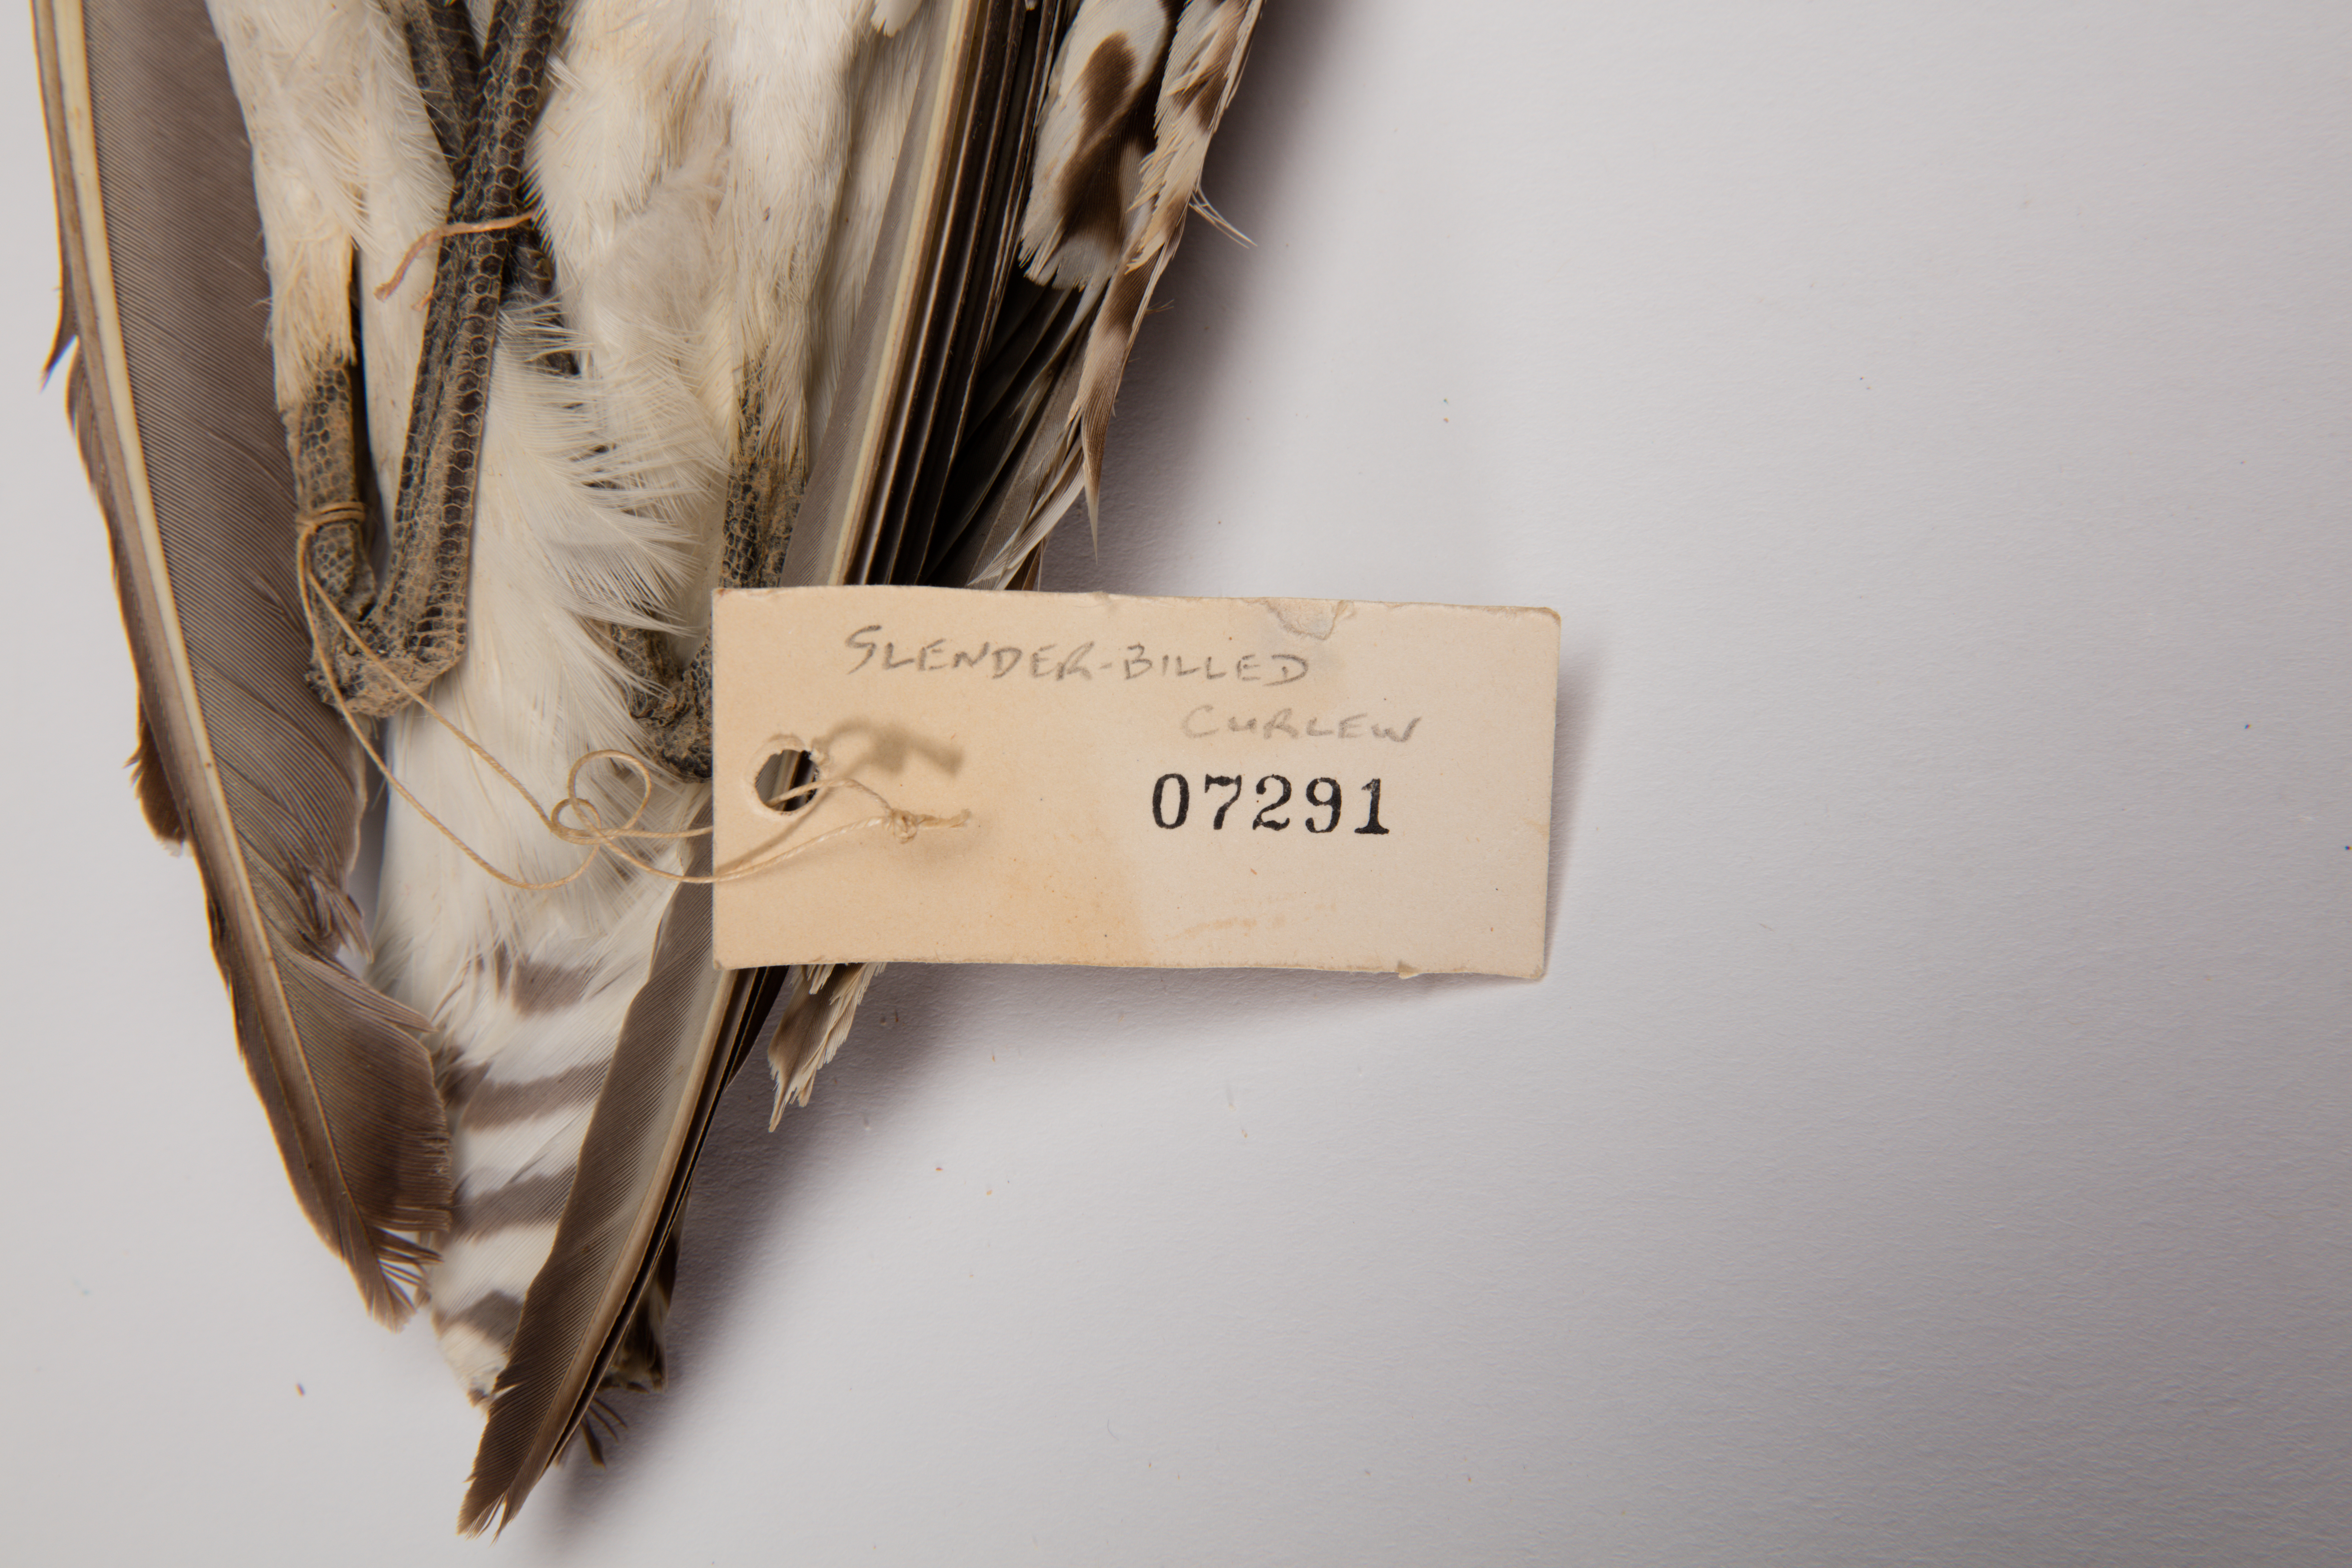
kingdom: Animalia
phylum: Chordata
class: Aves
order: Charadriiformes
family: Scolopacidae
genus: Numenius
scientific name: Numenius tenuirostris
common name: Slender-billed curlew
